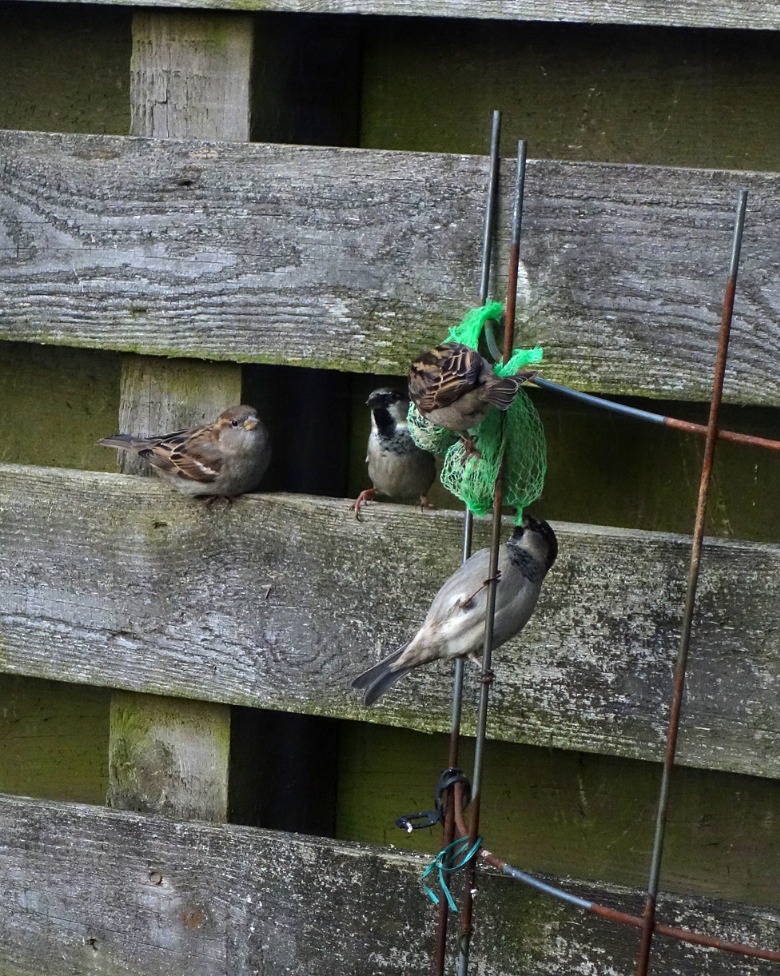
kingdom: Animalia
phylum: Chordata
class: Aves
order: Passeriformes
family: Passeridae
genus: Passer
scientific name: Passer domesticus
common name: Gråspurv
